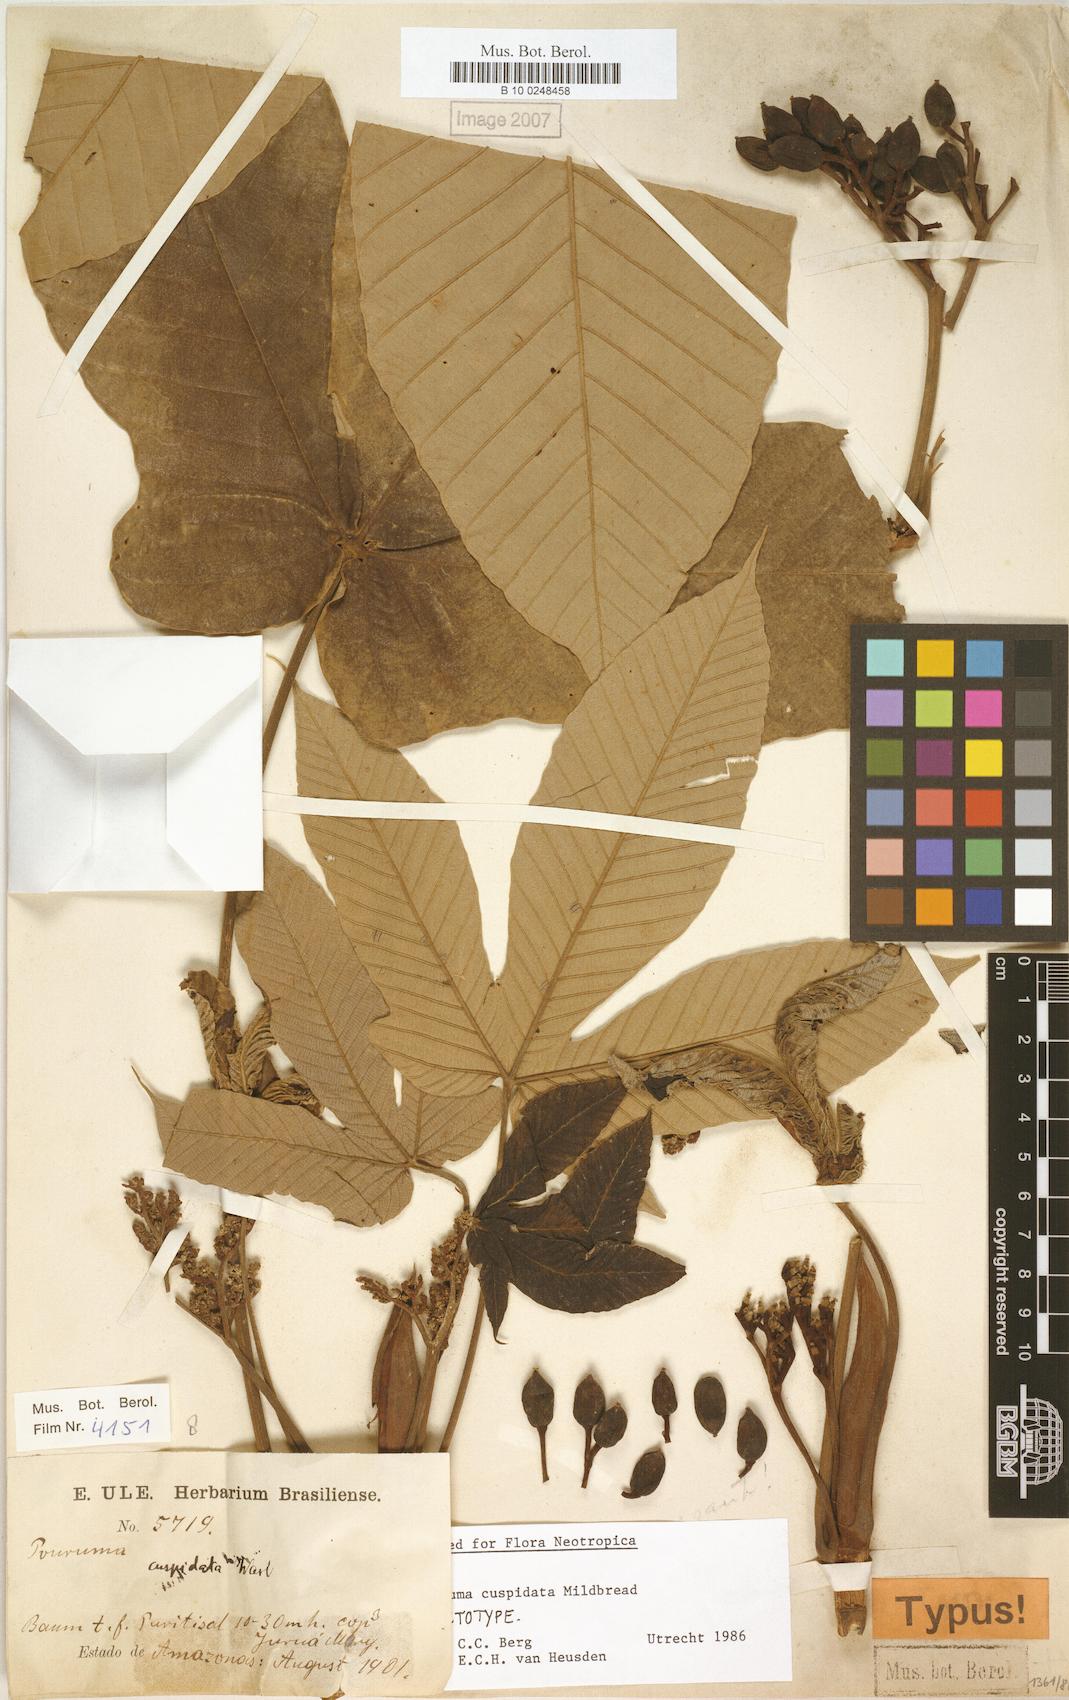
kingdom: Plantae
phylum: Tracheophyta
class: Magnoliopsida
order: Rosales
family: Urticaceae
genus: Pourouma
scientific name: Pourouma cuspidata
